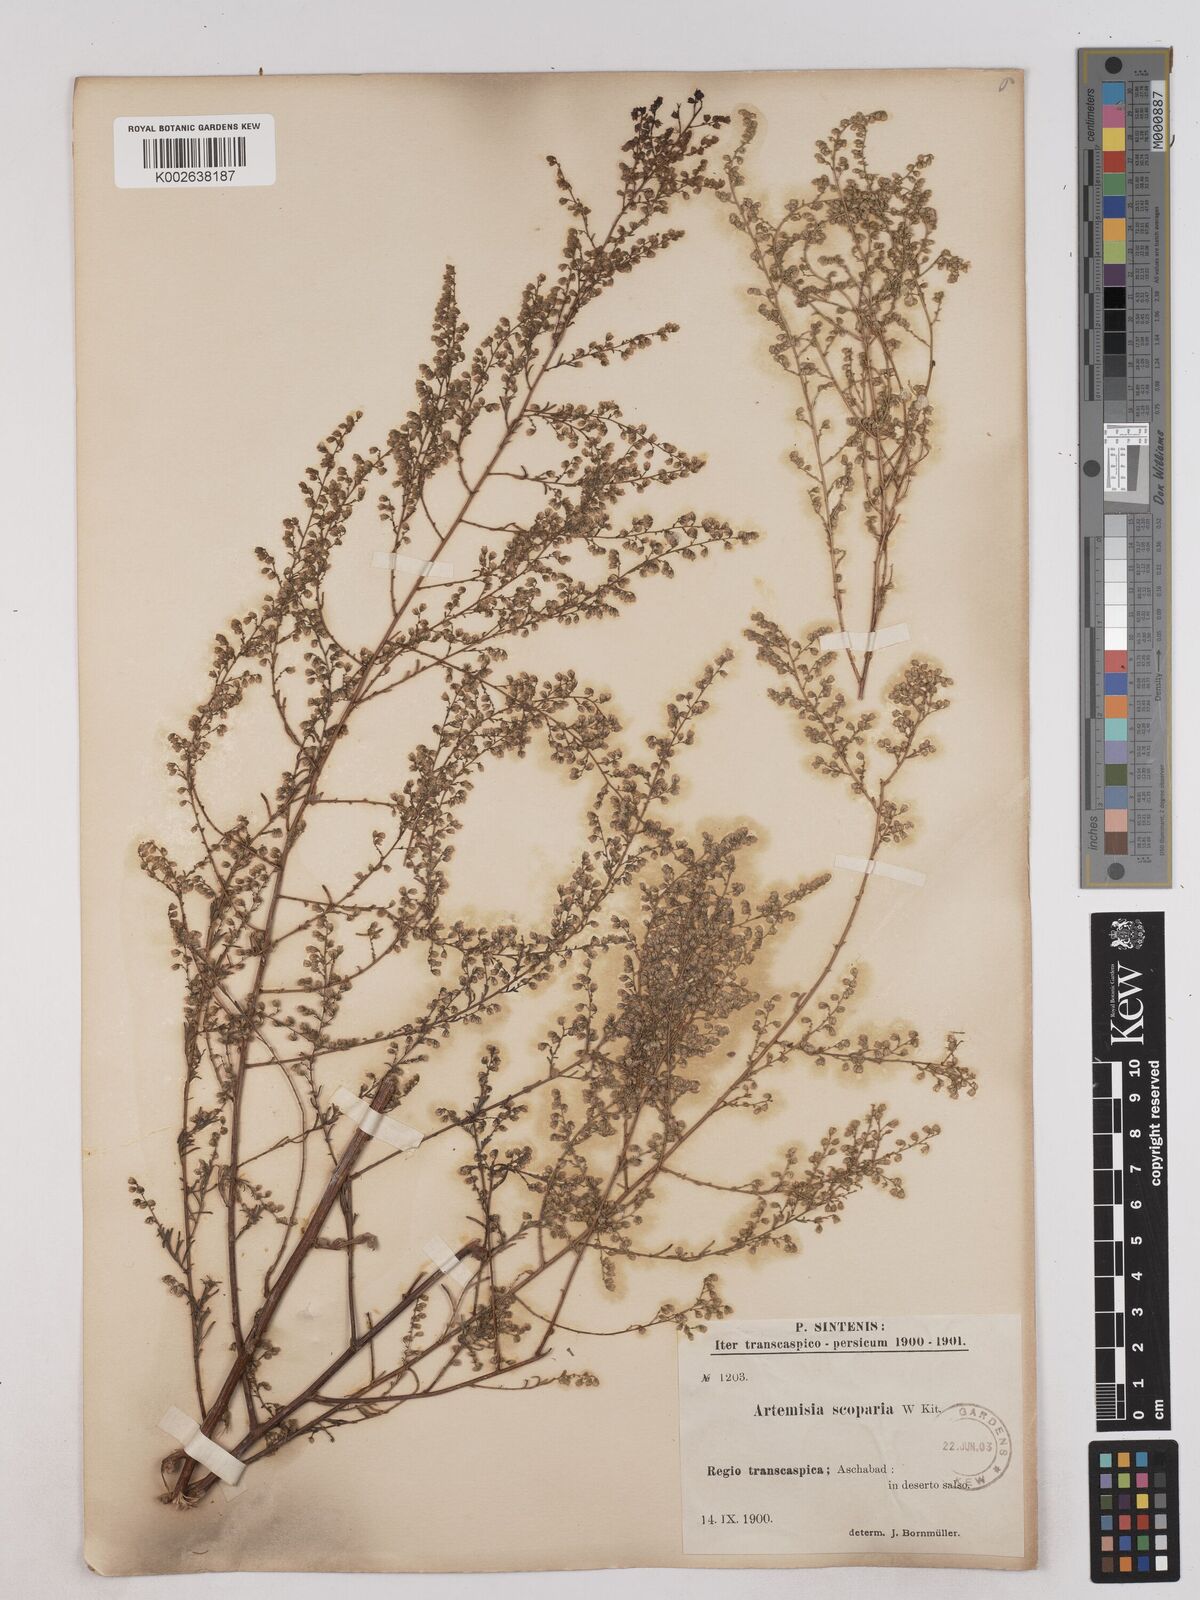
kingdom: Plantae
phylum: Tracheophyta
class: Magnoliopsida
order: Asterales
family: Asteraceae
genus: Artemisia
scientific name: Artemisia
